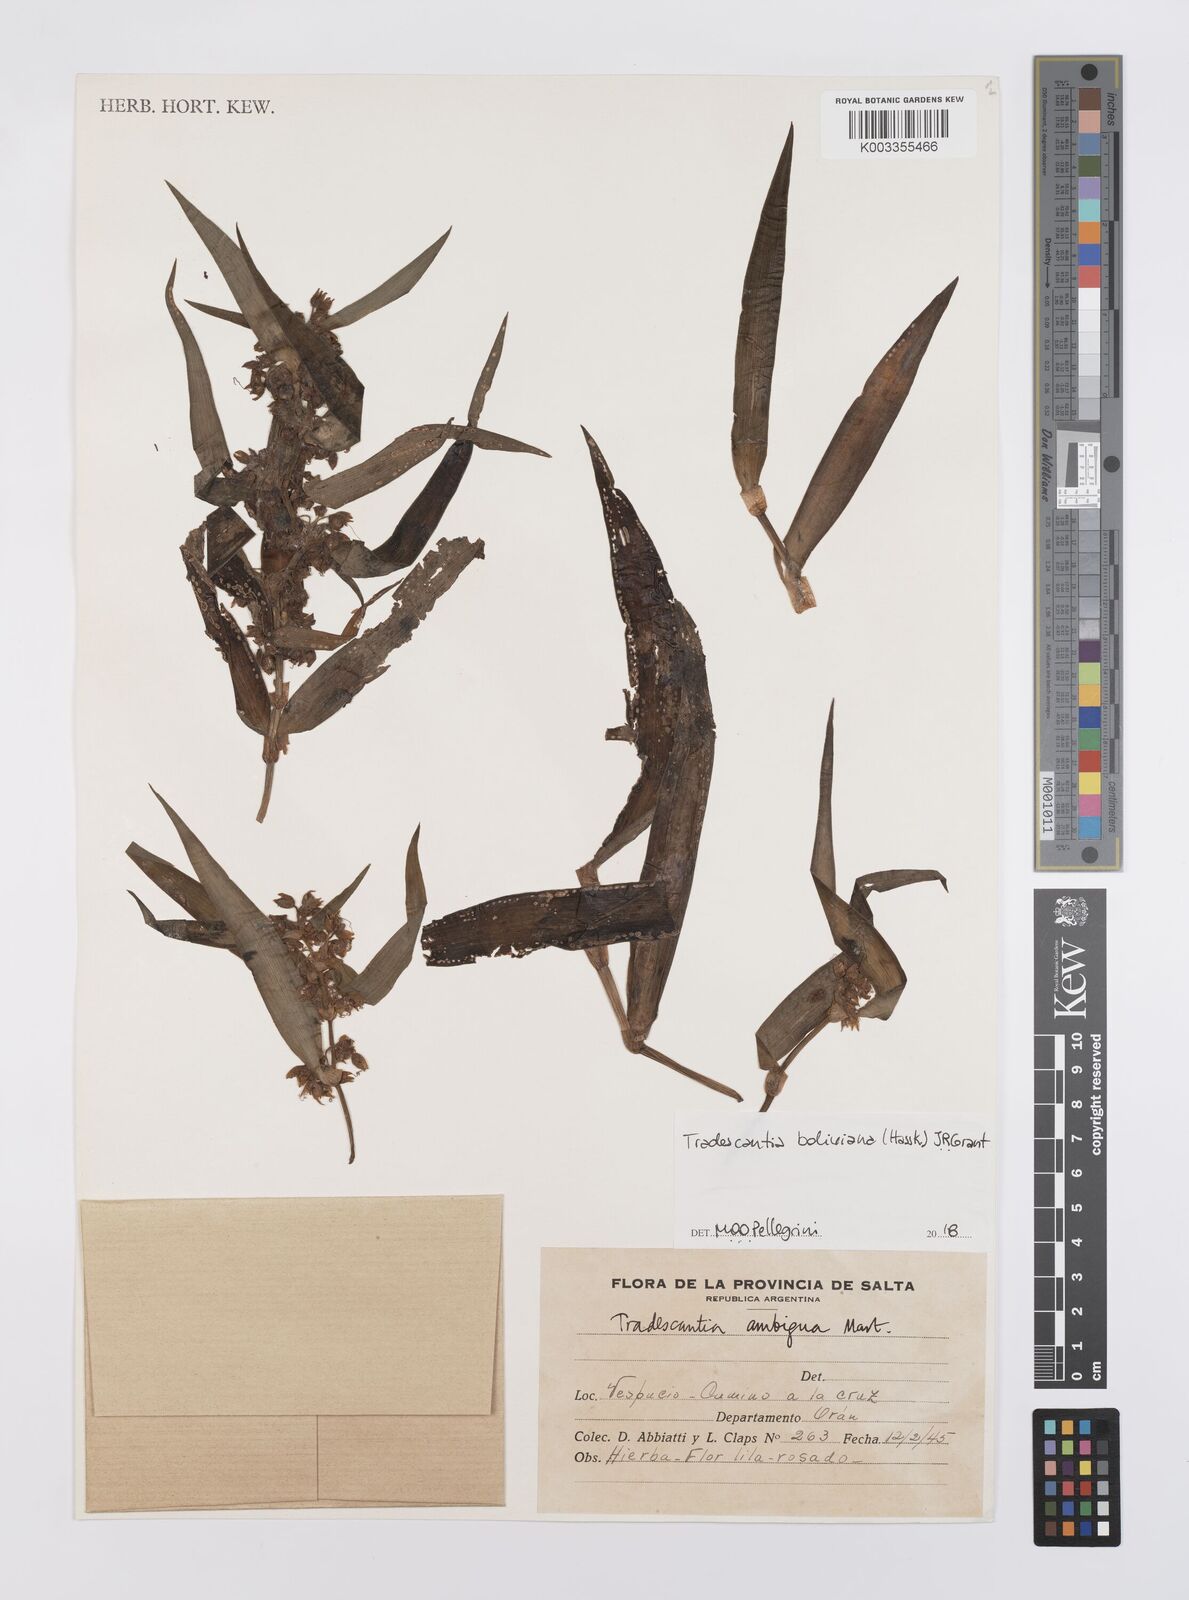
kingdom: Plantae
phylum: Tracheophyta
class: Liliopsida
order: Commelinales
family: Commelinaceae
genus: Tradescantia
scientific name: Tradescantia boliviana
